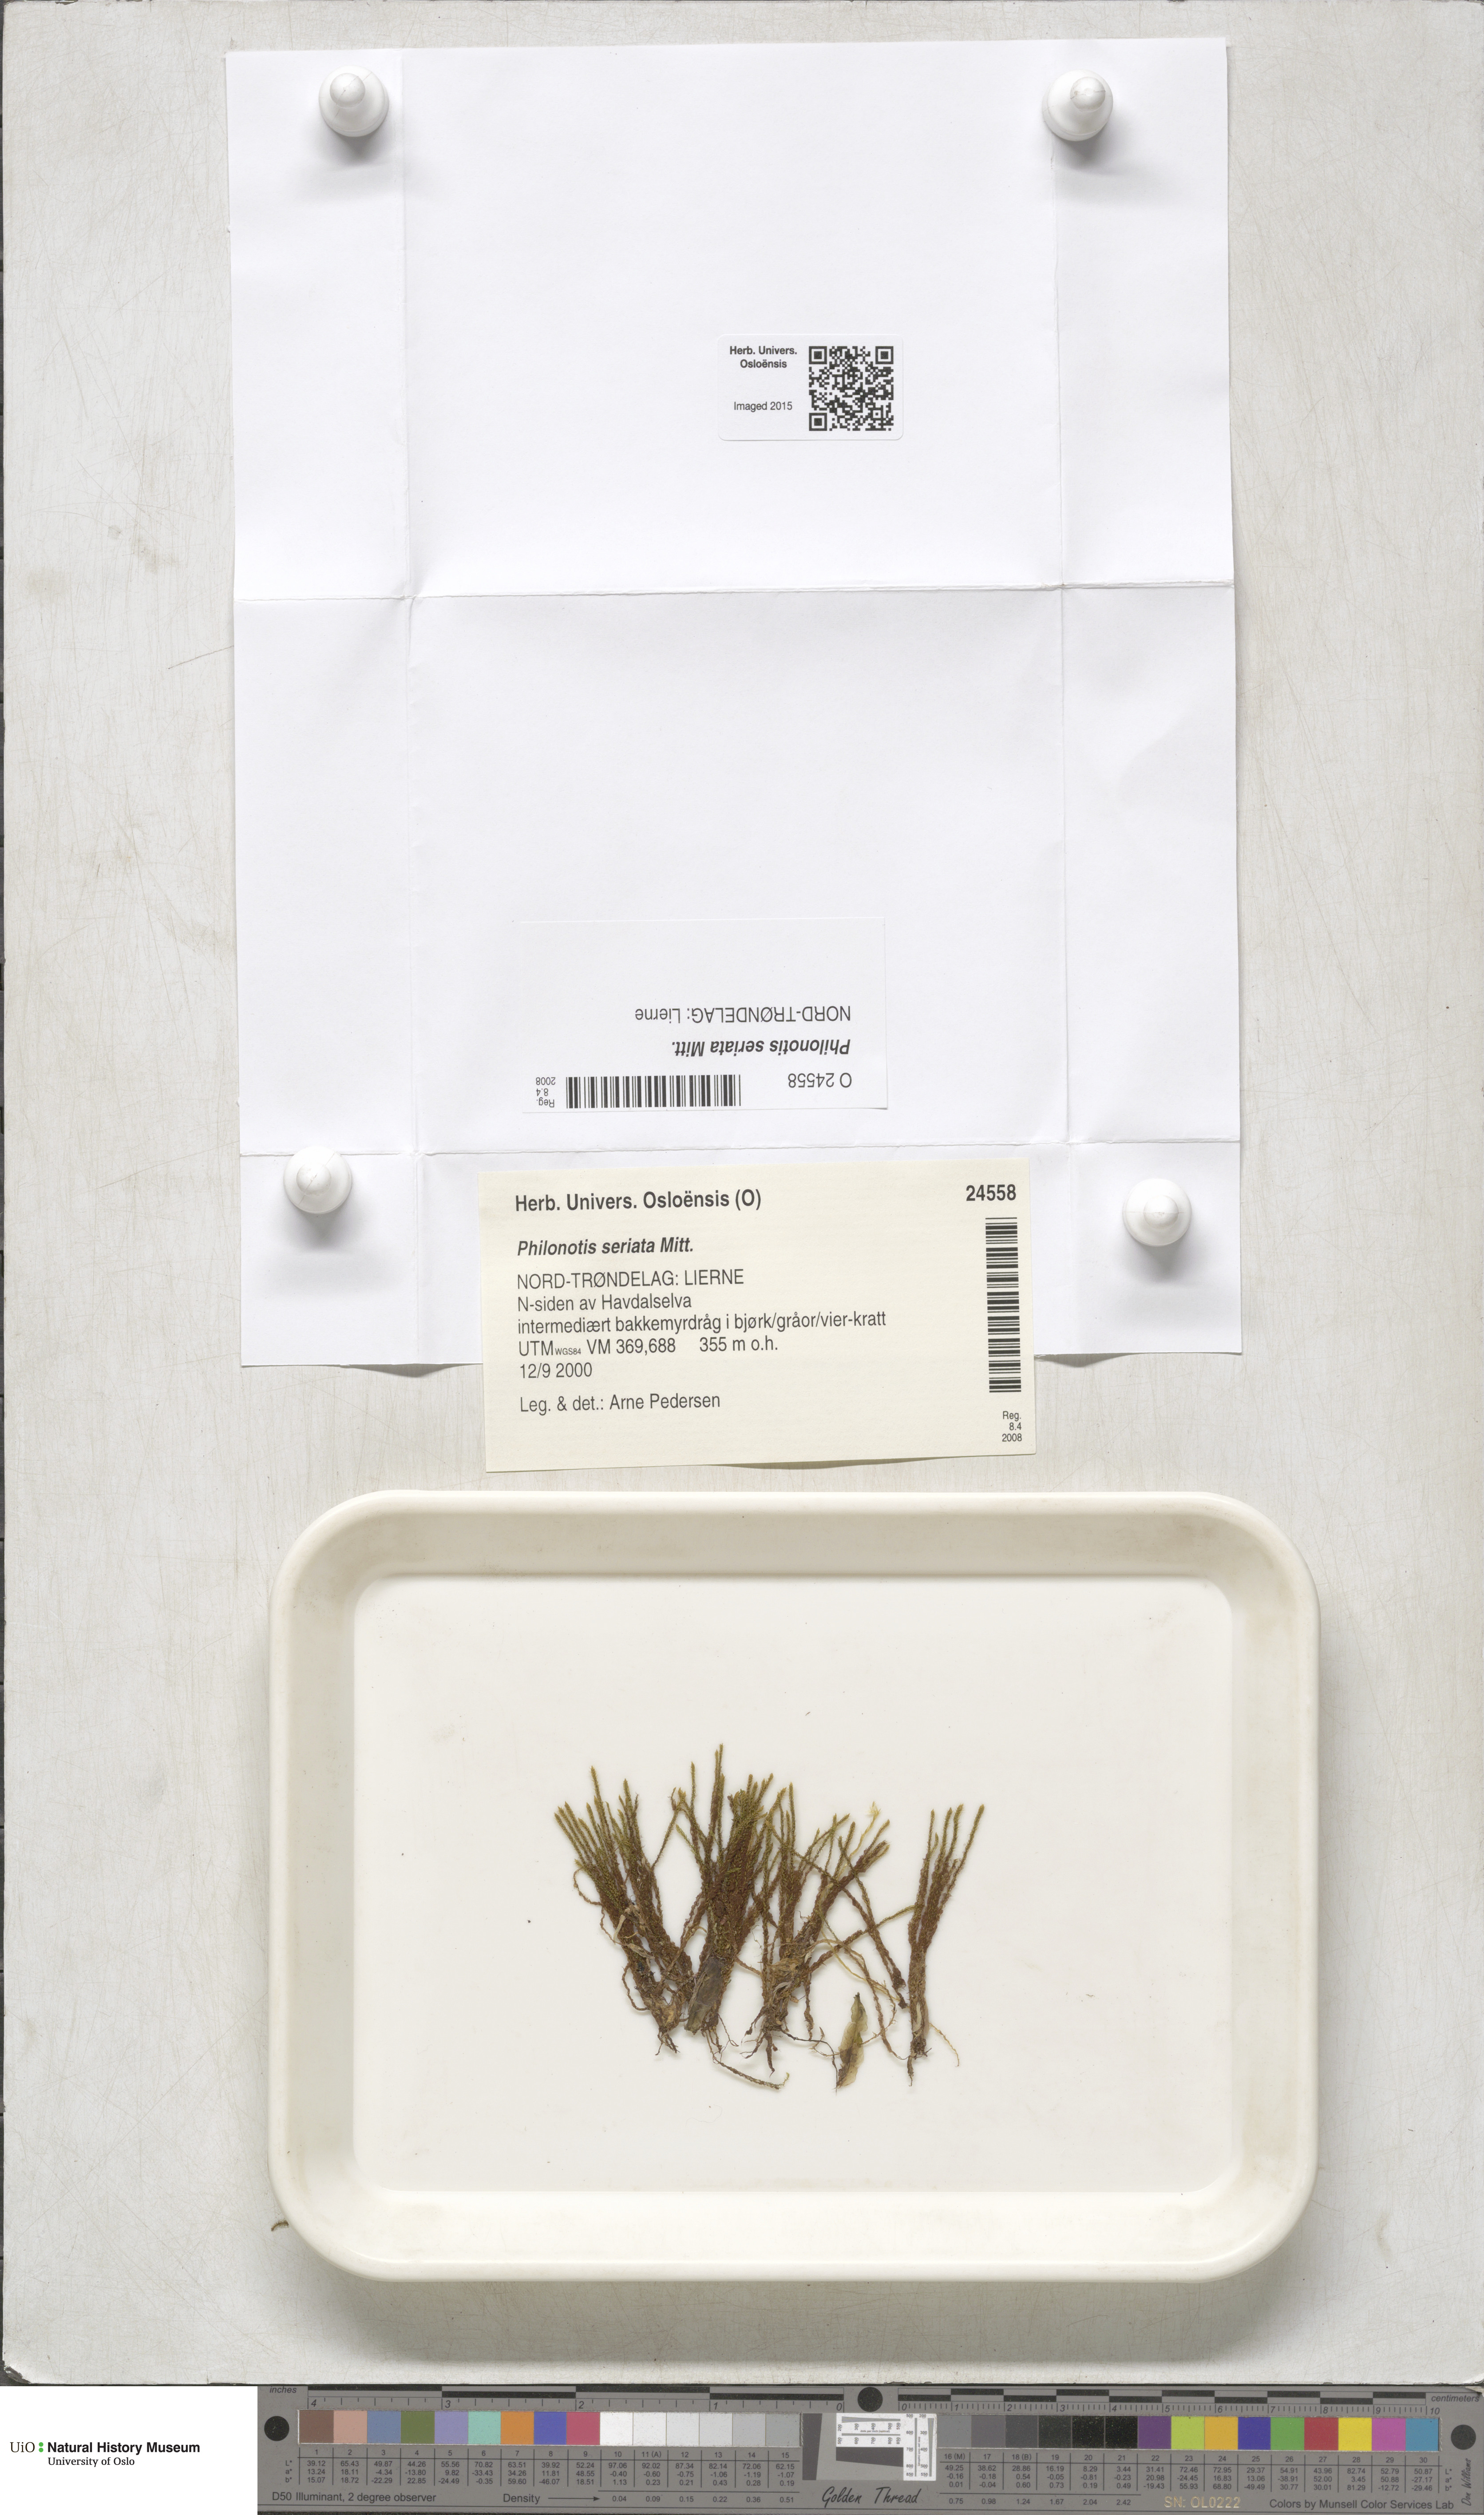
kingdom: Plantae
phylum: Bryophyta
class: Bryopsida
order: Bartramiales
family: Bartramiaceae
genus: Philonotis
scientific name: Philonotis seriata
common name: Spiral apple-moss
